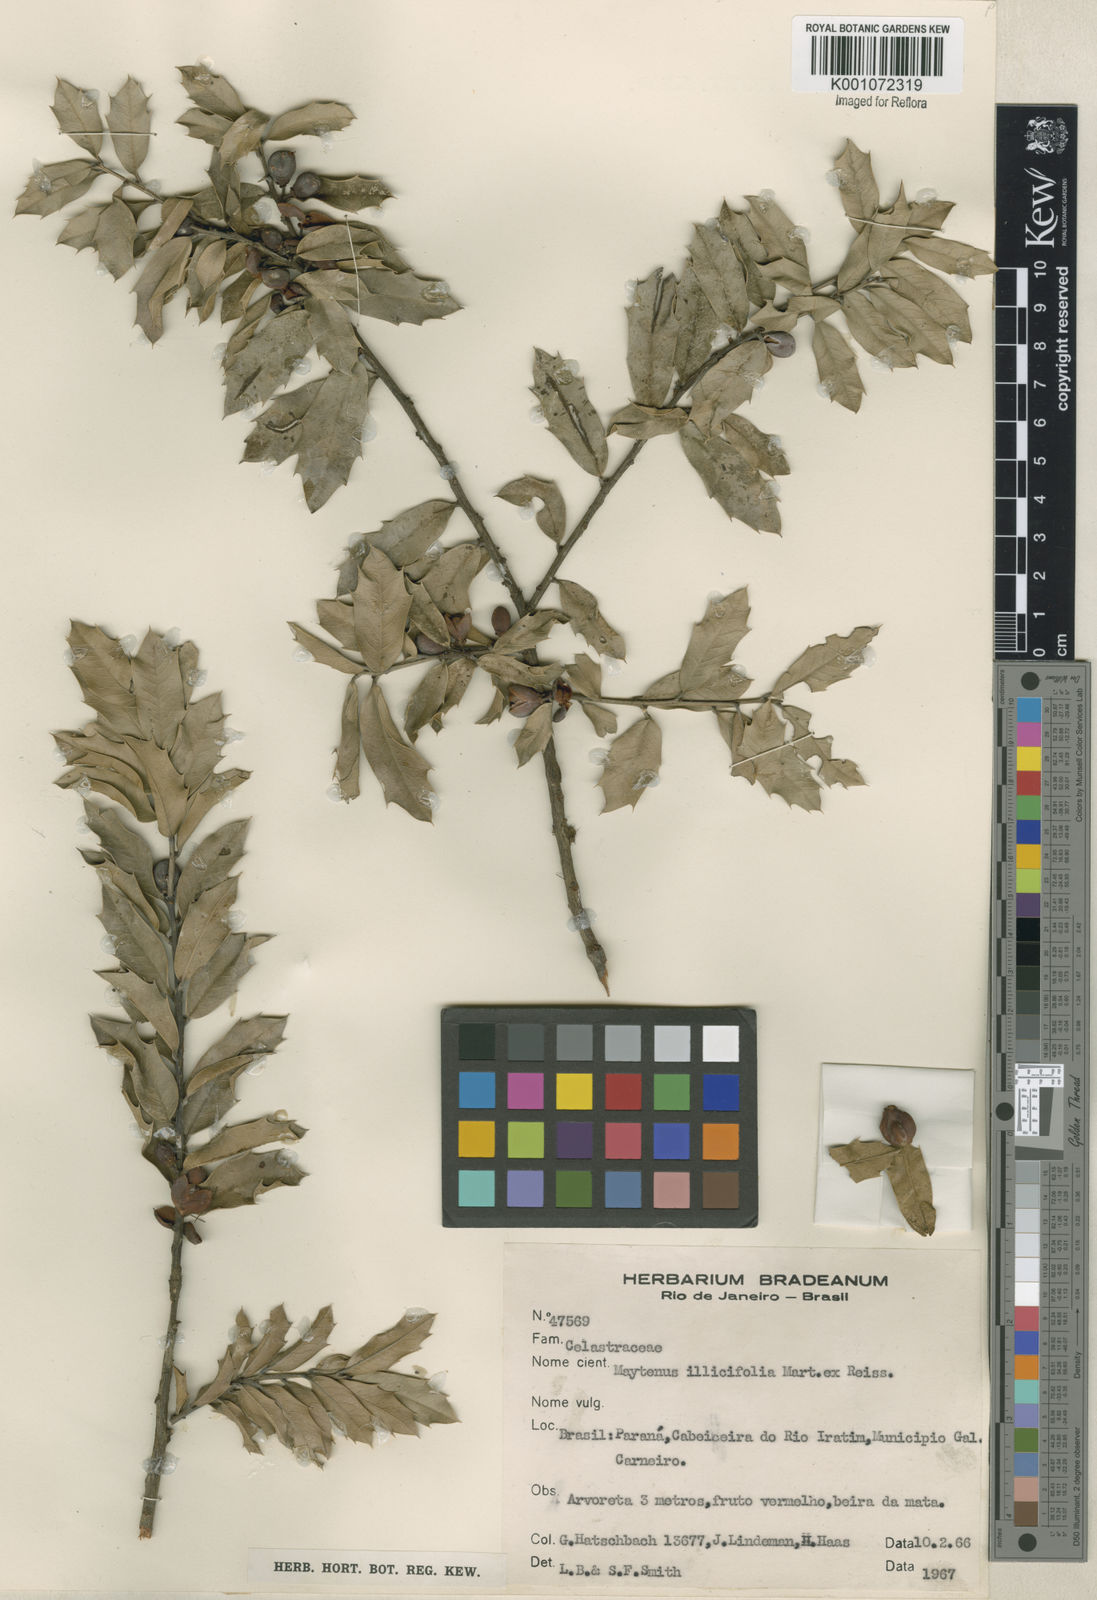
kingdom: Plantae
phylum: Tracheophyta
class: Magnoliopsida
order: Celastrales
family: Celastraceae
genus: Monteverdia
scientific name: Monteverdia ilicifolia
